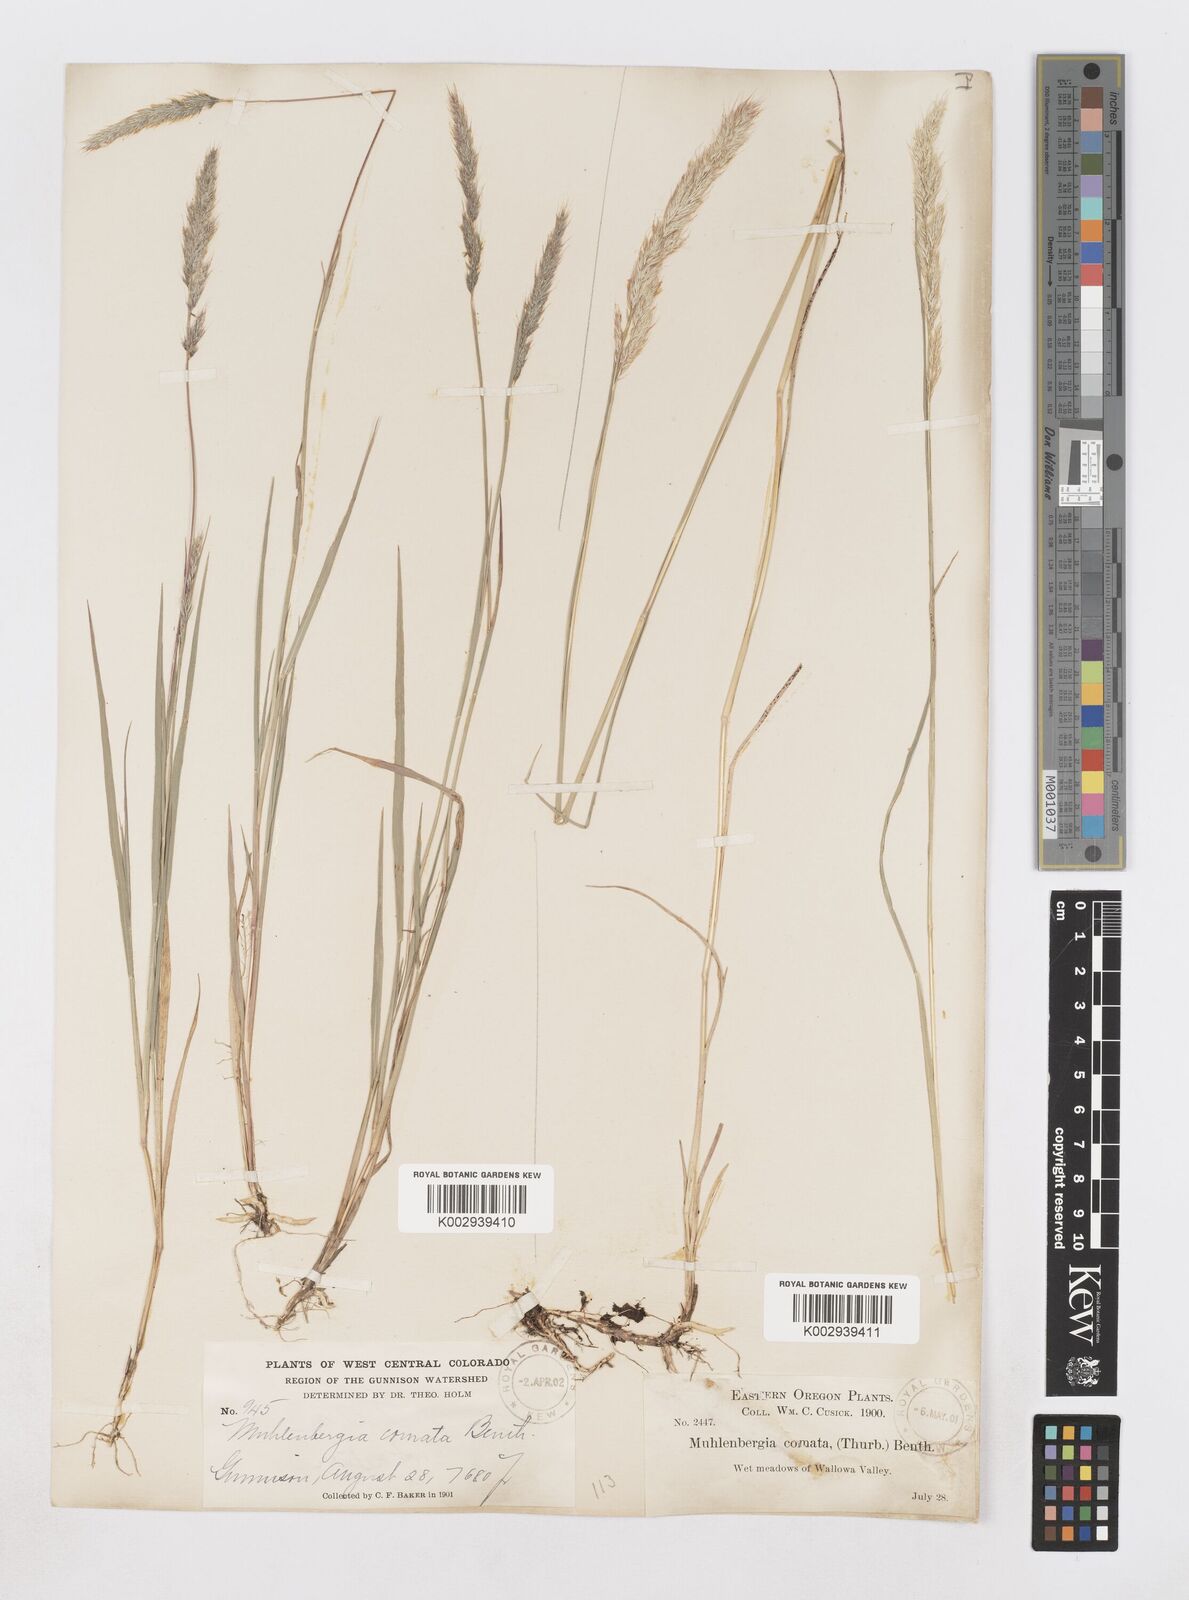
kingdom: Plantae
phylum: Tracheophyta
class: Liliopsida
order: Poales
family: Poaceae
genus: Muhlenbergia
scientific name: Muhlenbergia andina
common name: Foxtail muhly
